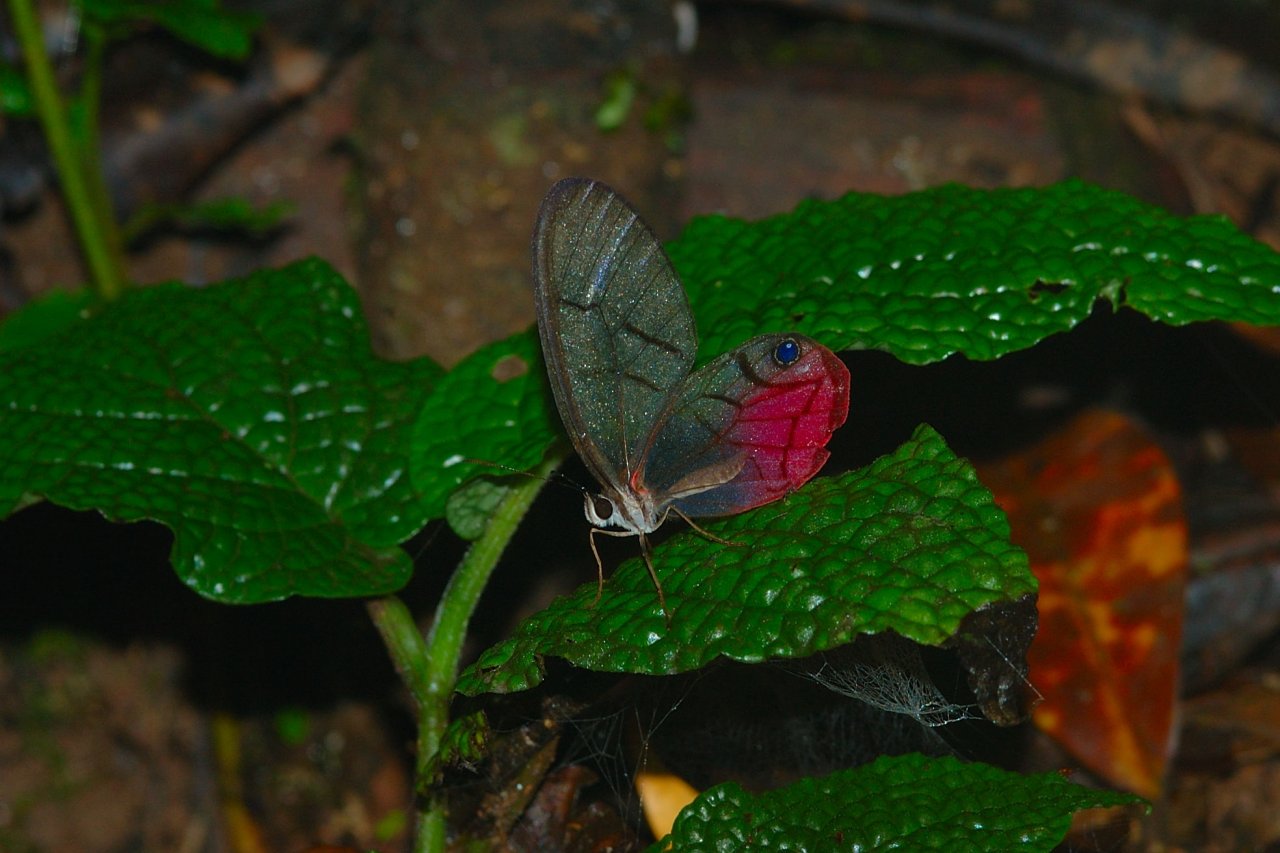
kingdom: Animalia
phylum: Arthropoda
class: Insecta
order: Lepidoptera
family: Nymphalidae
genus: Cithaerias
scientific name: Cithaerias pireta
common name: Rusted Clearwing-Satyr
